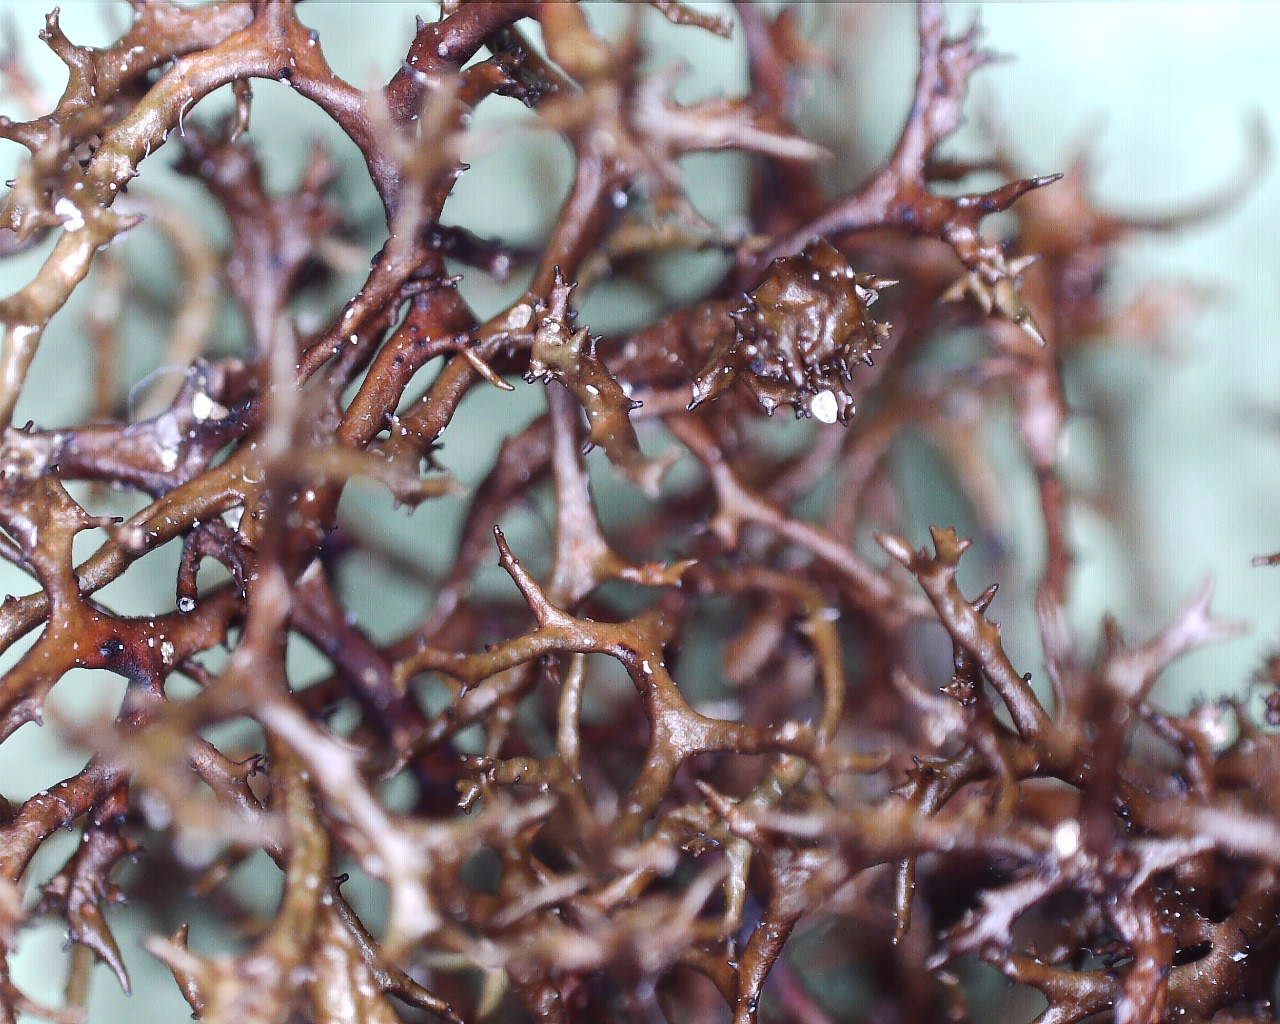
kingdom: Fungi
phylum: Ascomycota
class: Lecanoromycetes
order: Lecanorales
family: Parmeliaceae
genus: Cetraria
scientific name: Cetraria muricata
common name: tue-tjørnelav
